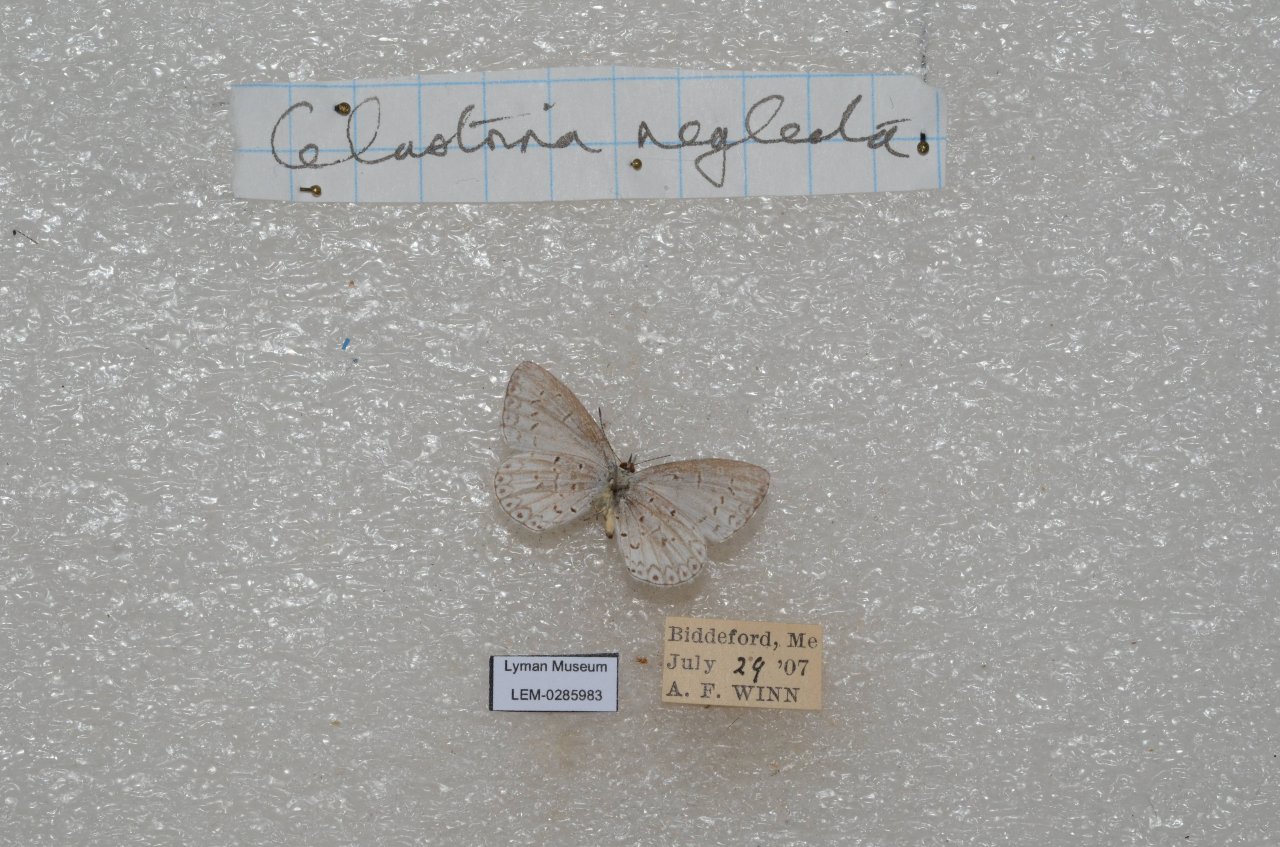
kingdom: Animalia
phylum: Arthropoda
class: Insecta
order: Lepidoptera
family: Lycaenidae
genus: Cyaniris
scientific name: Cyaniris neglecta
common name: Summer Azure
